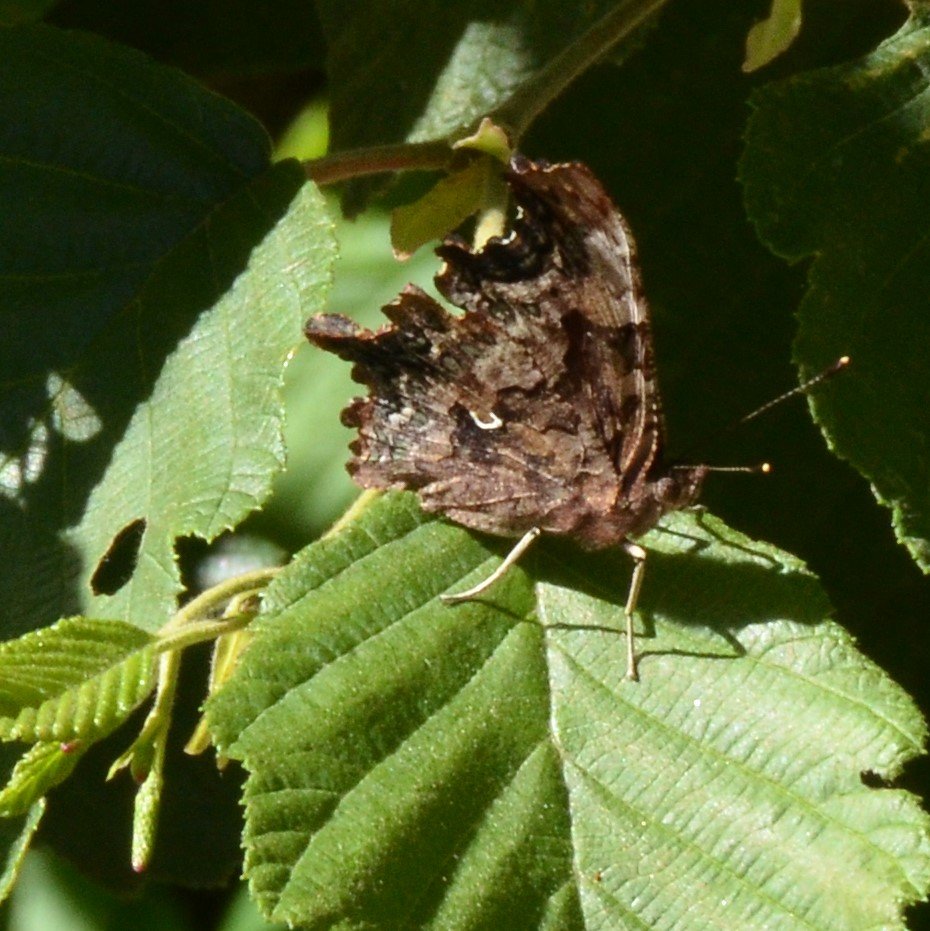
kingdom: Animalia
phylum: Arthropoda
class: Insecta
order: Lepidoptera
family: Nymphalidae
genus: Polygonia
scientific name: Polygonia faunus
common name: Green Comma
